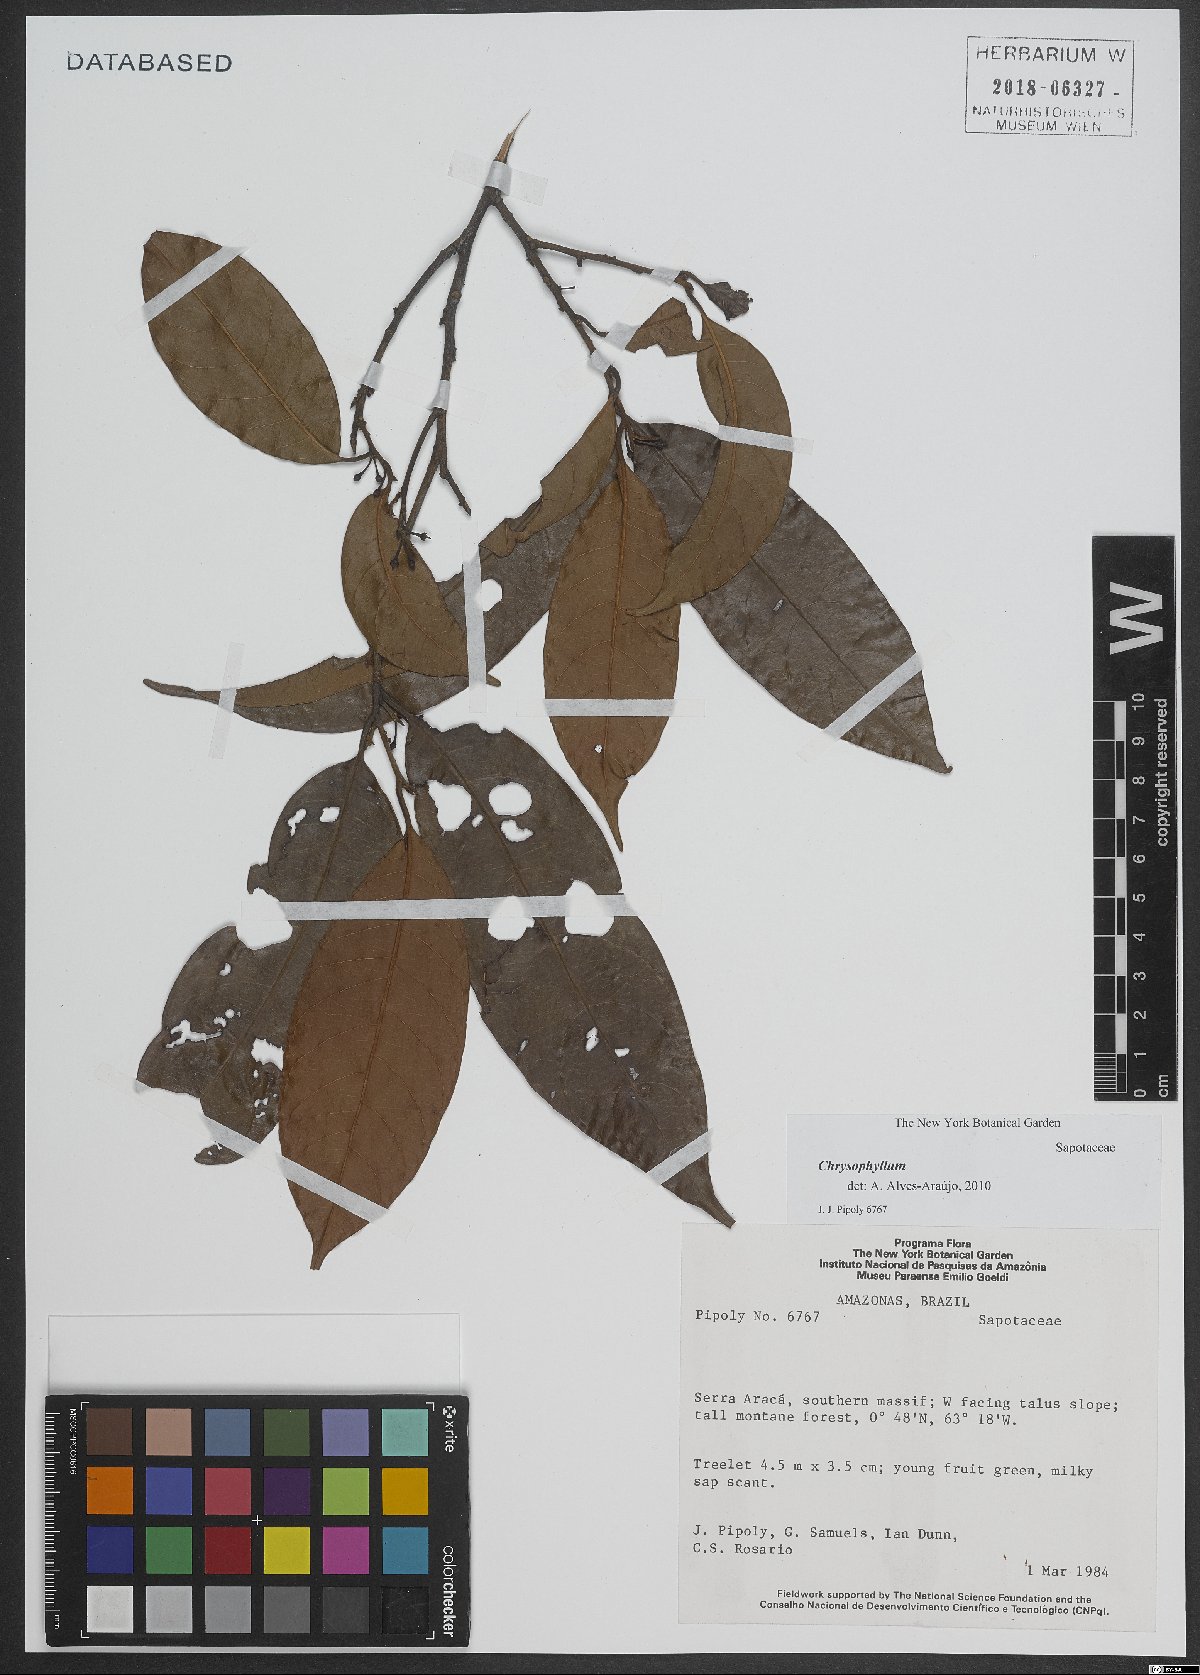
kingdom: Plantae
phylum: Tracheophyta
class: Magnoliopsida
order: Ericales
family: Sapotaceae
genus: Chrysophyllum
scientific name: Chrysophyllum
